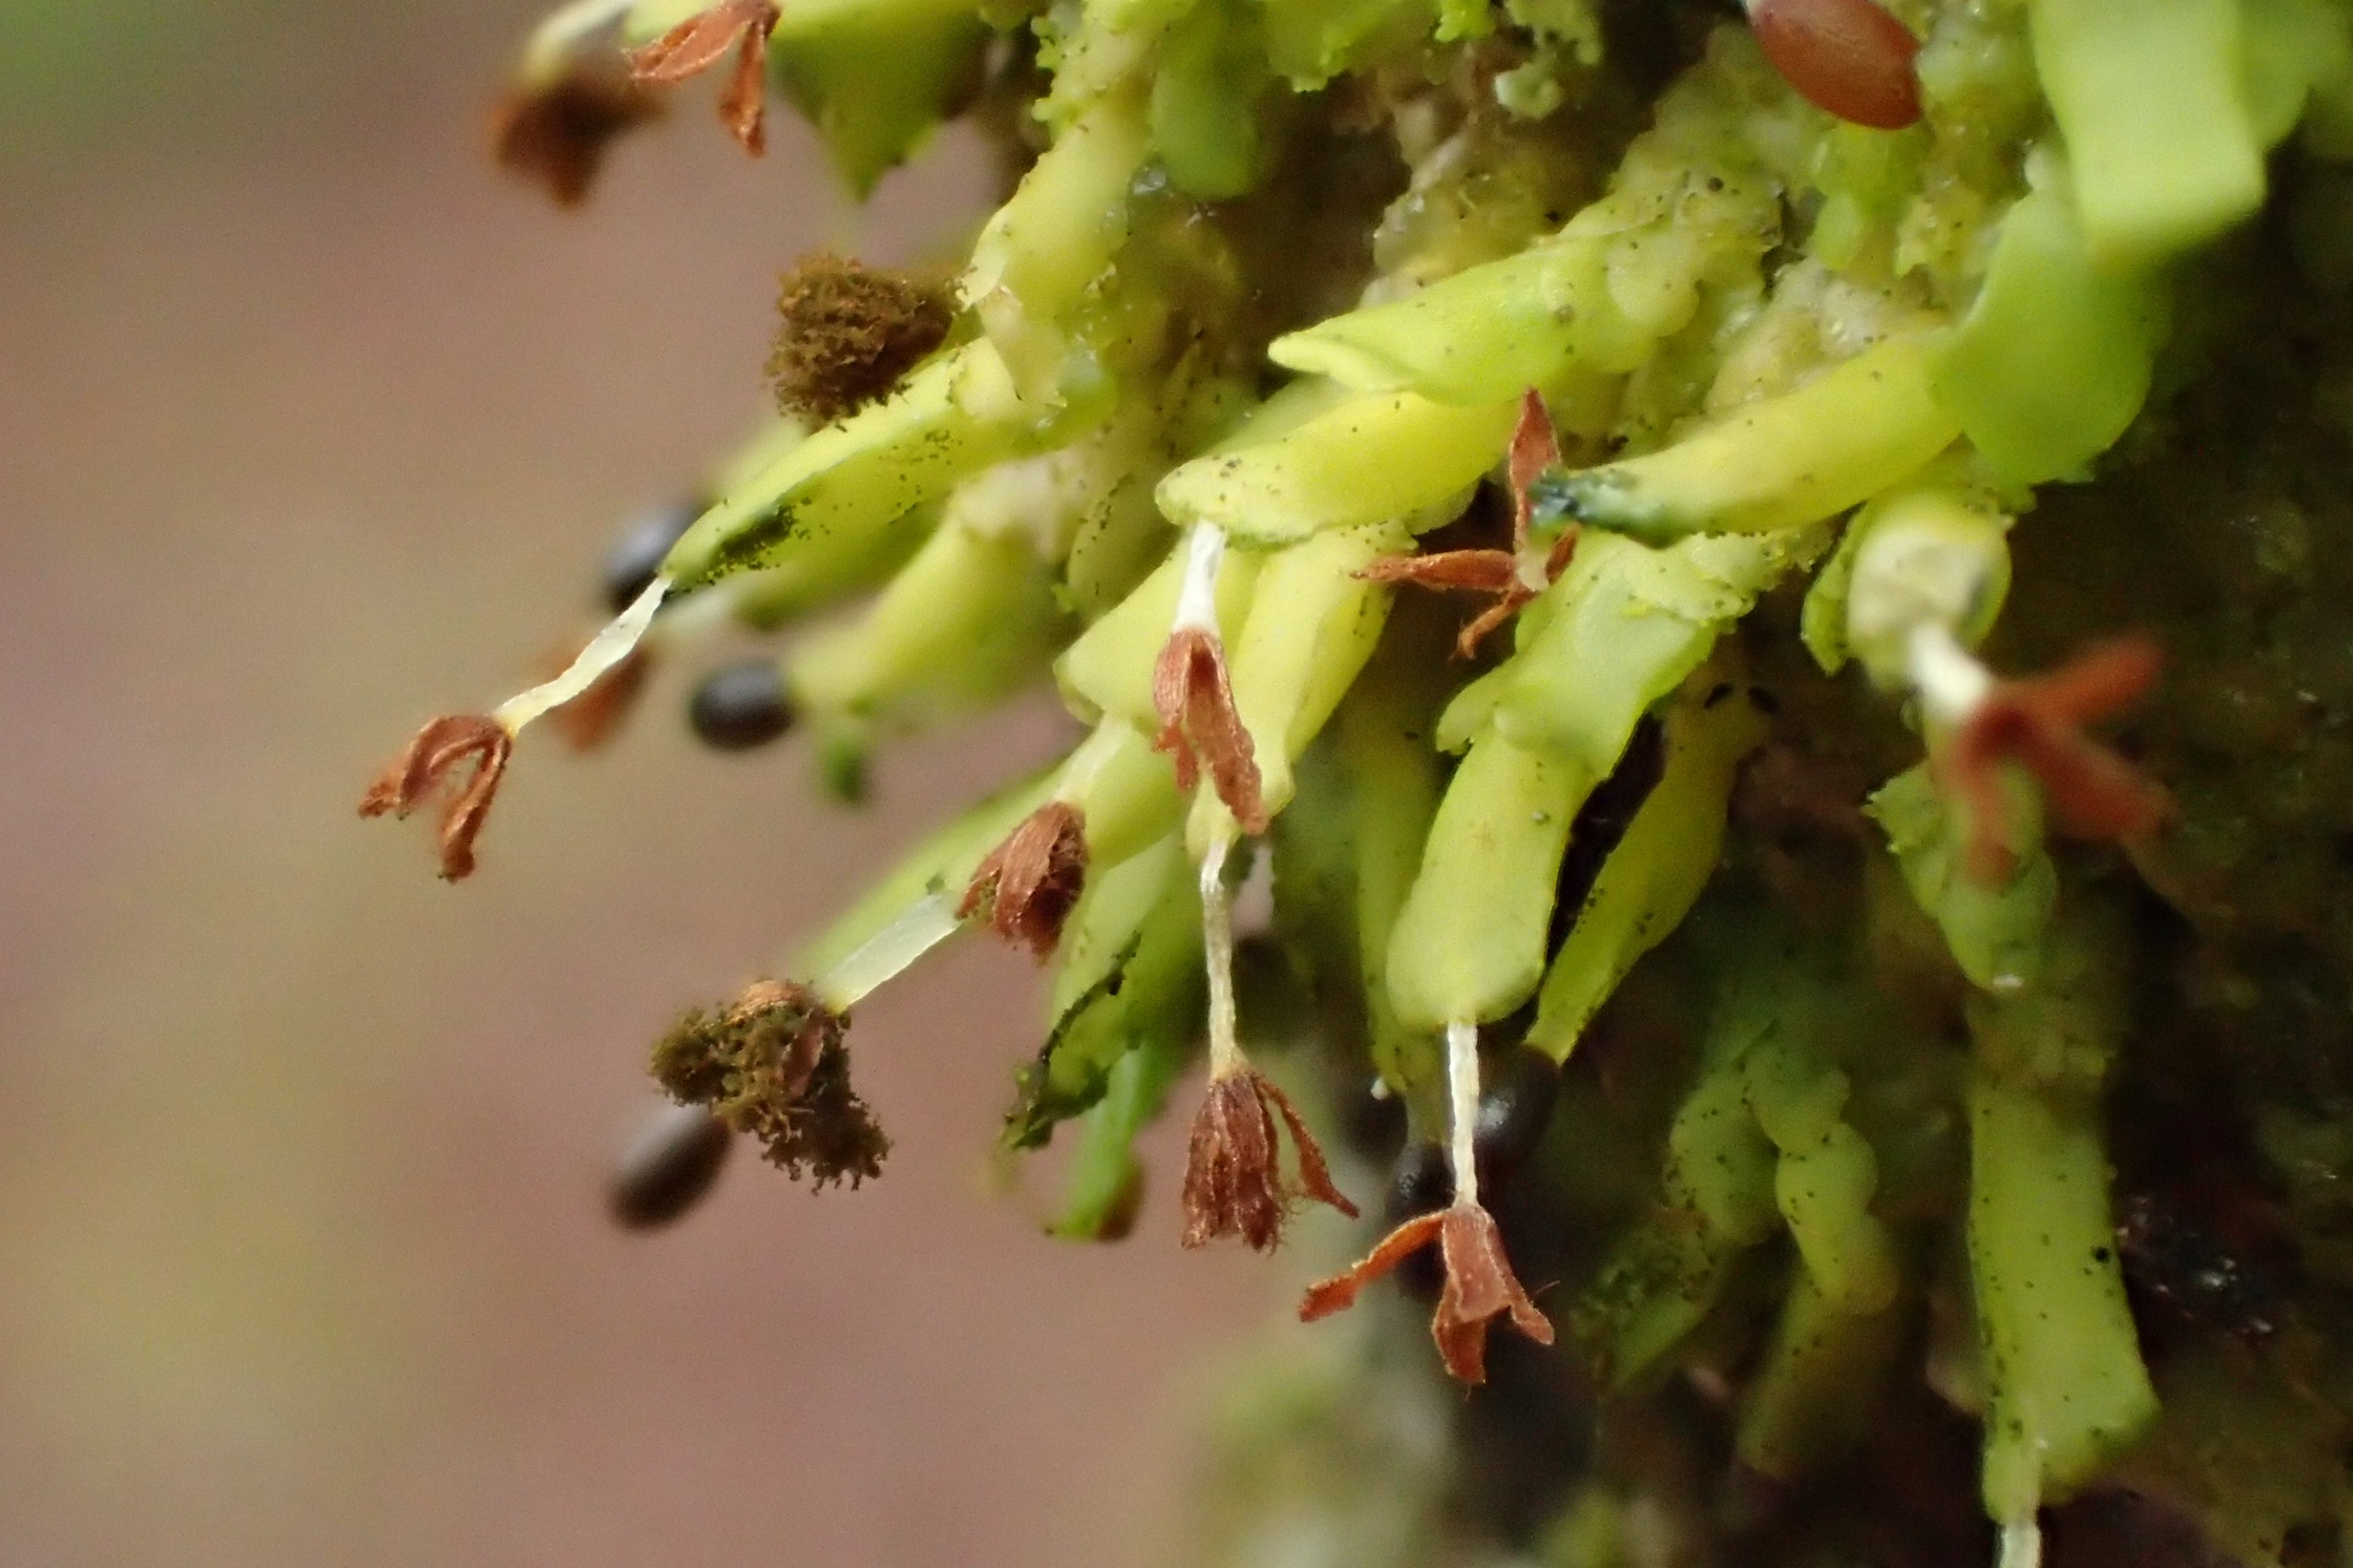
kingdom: Plantae
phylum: Marchantiophyta
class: Jungermanniopsida
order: Porellales
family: Radulaceae
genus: Radula
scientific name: Radula complanata
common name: Almindelig spartelmos
